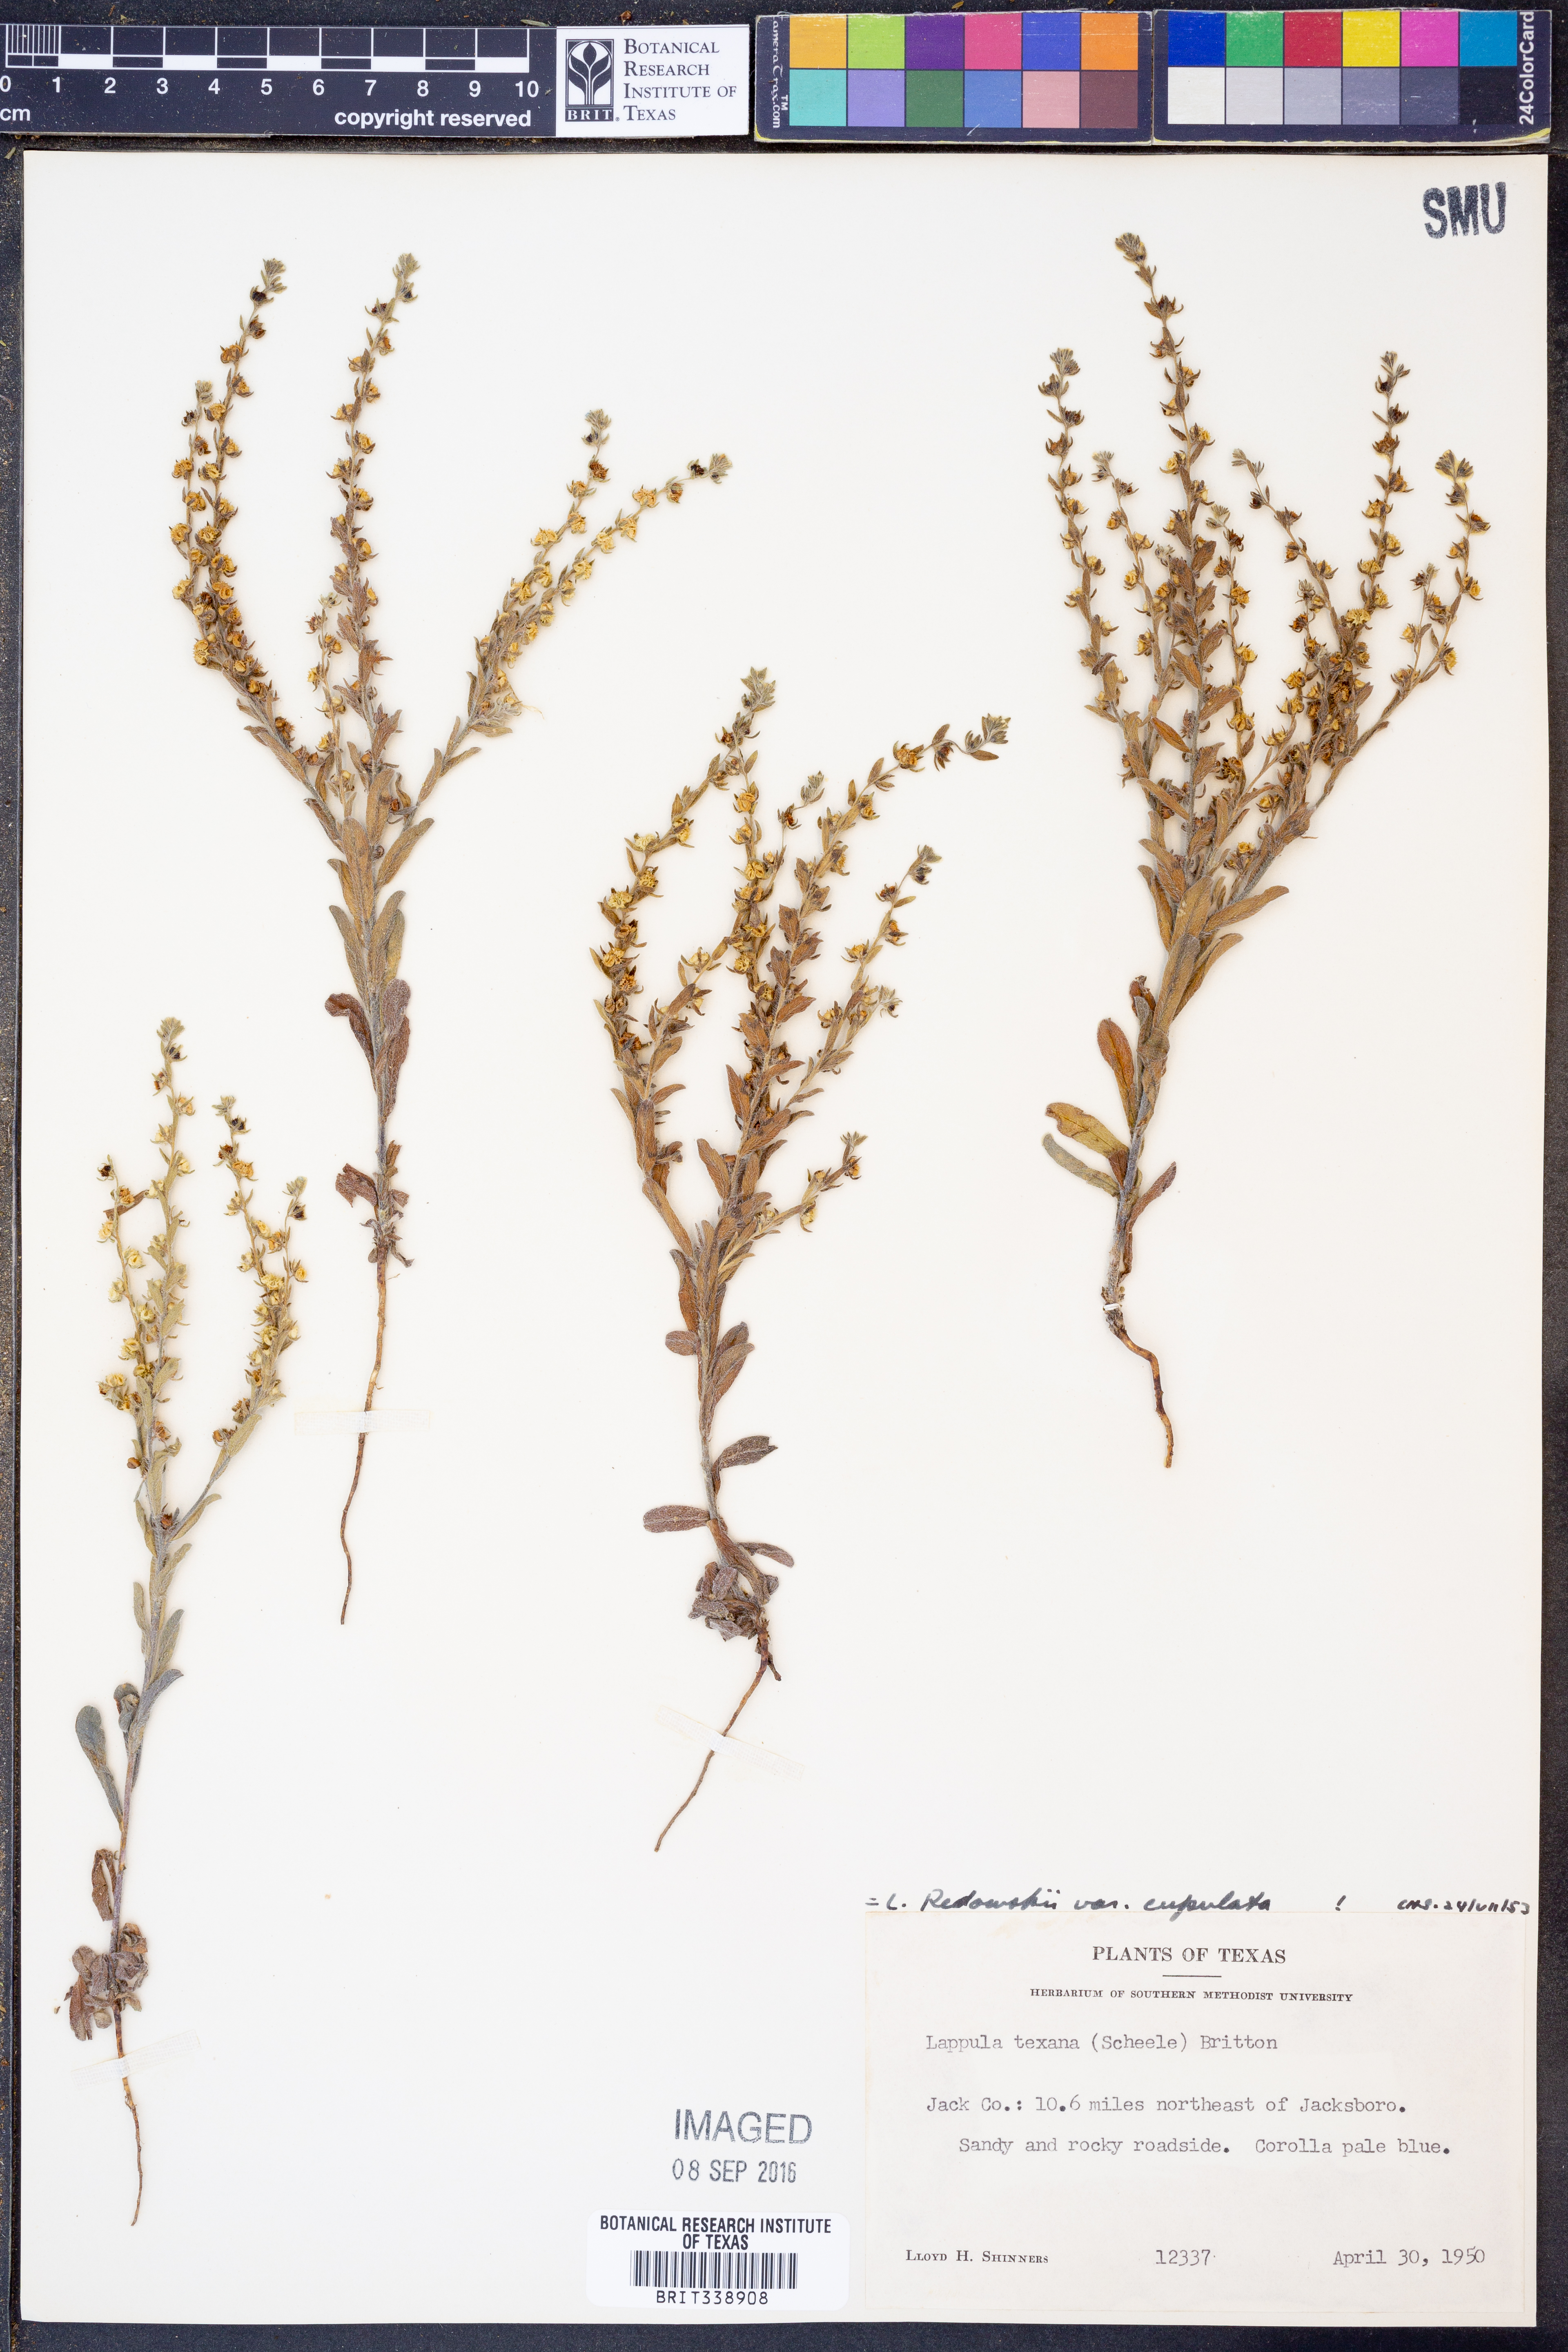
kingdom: Plantae
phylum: Tracheophyta
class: Magnoliopsida
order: Boraginales
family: Boraginaceae
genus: Lappula
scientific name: Lappula occidentalis
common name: Western stickseed
